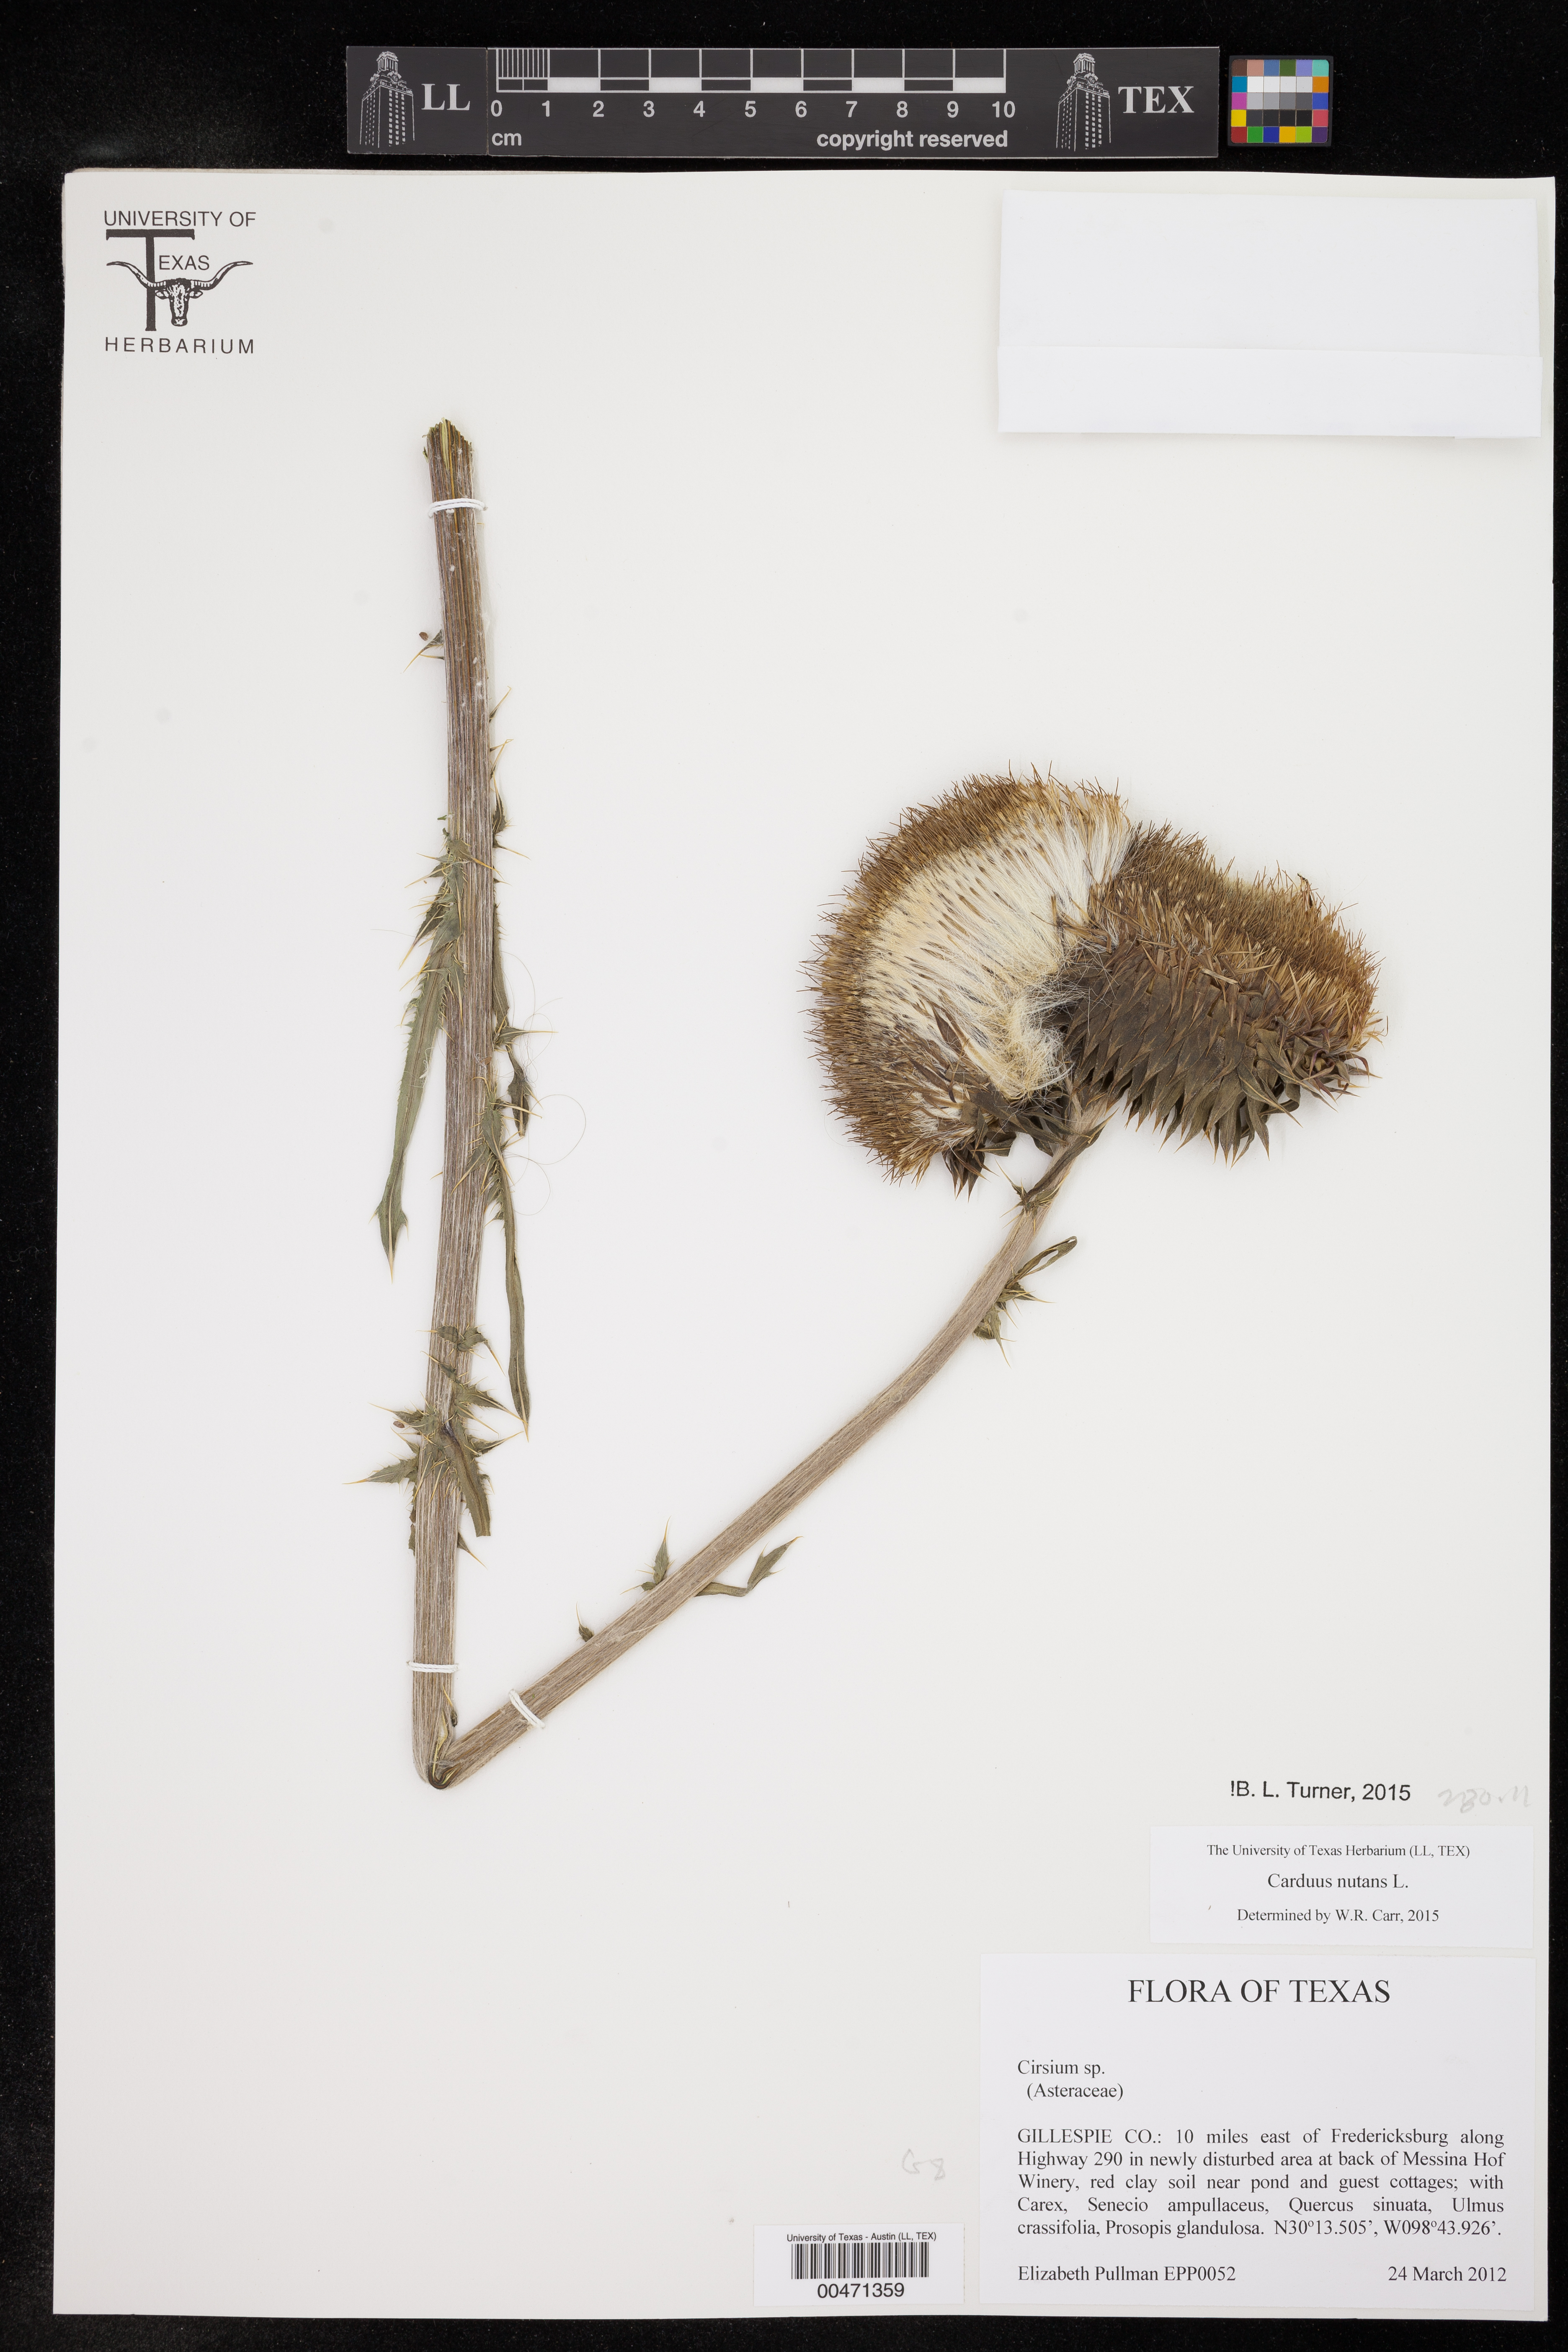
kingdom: Plantae
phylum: Tracheophyta
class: Magnoliopsida
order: Asterales
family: Asteraceae
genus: Carduus
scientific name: Carduus nutans
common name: Musk thistle
